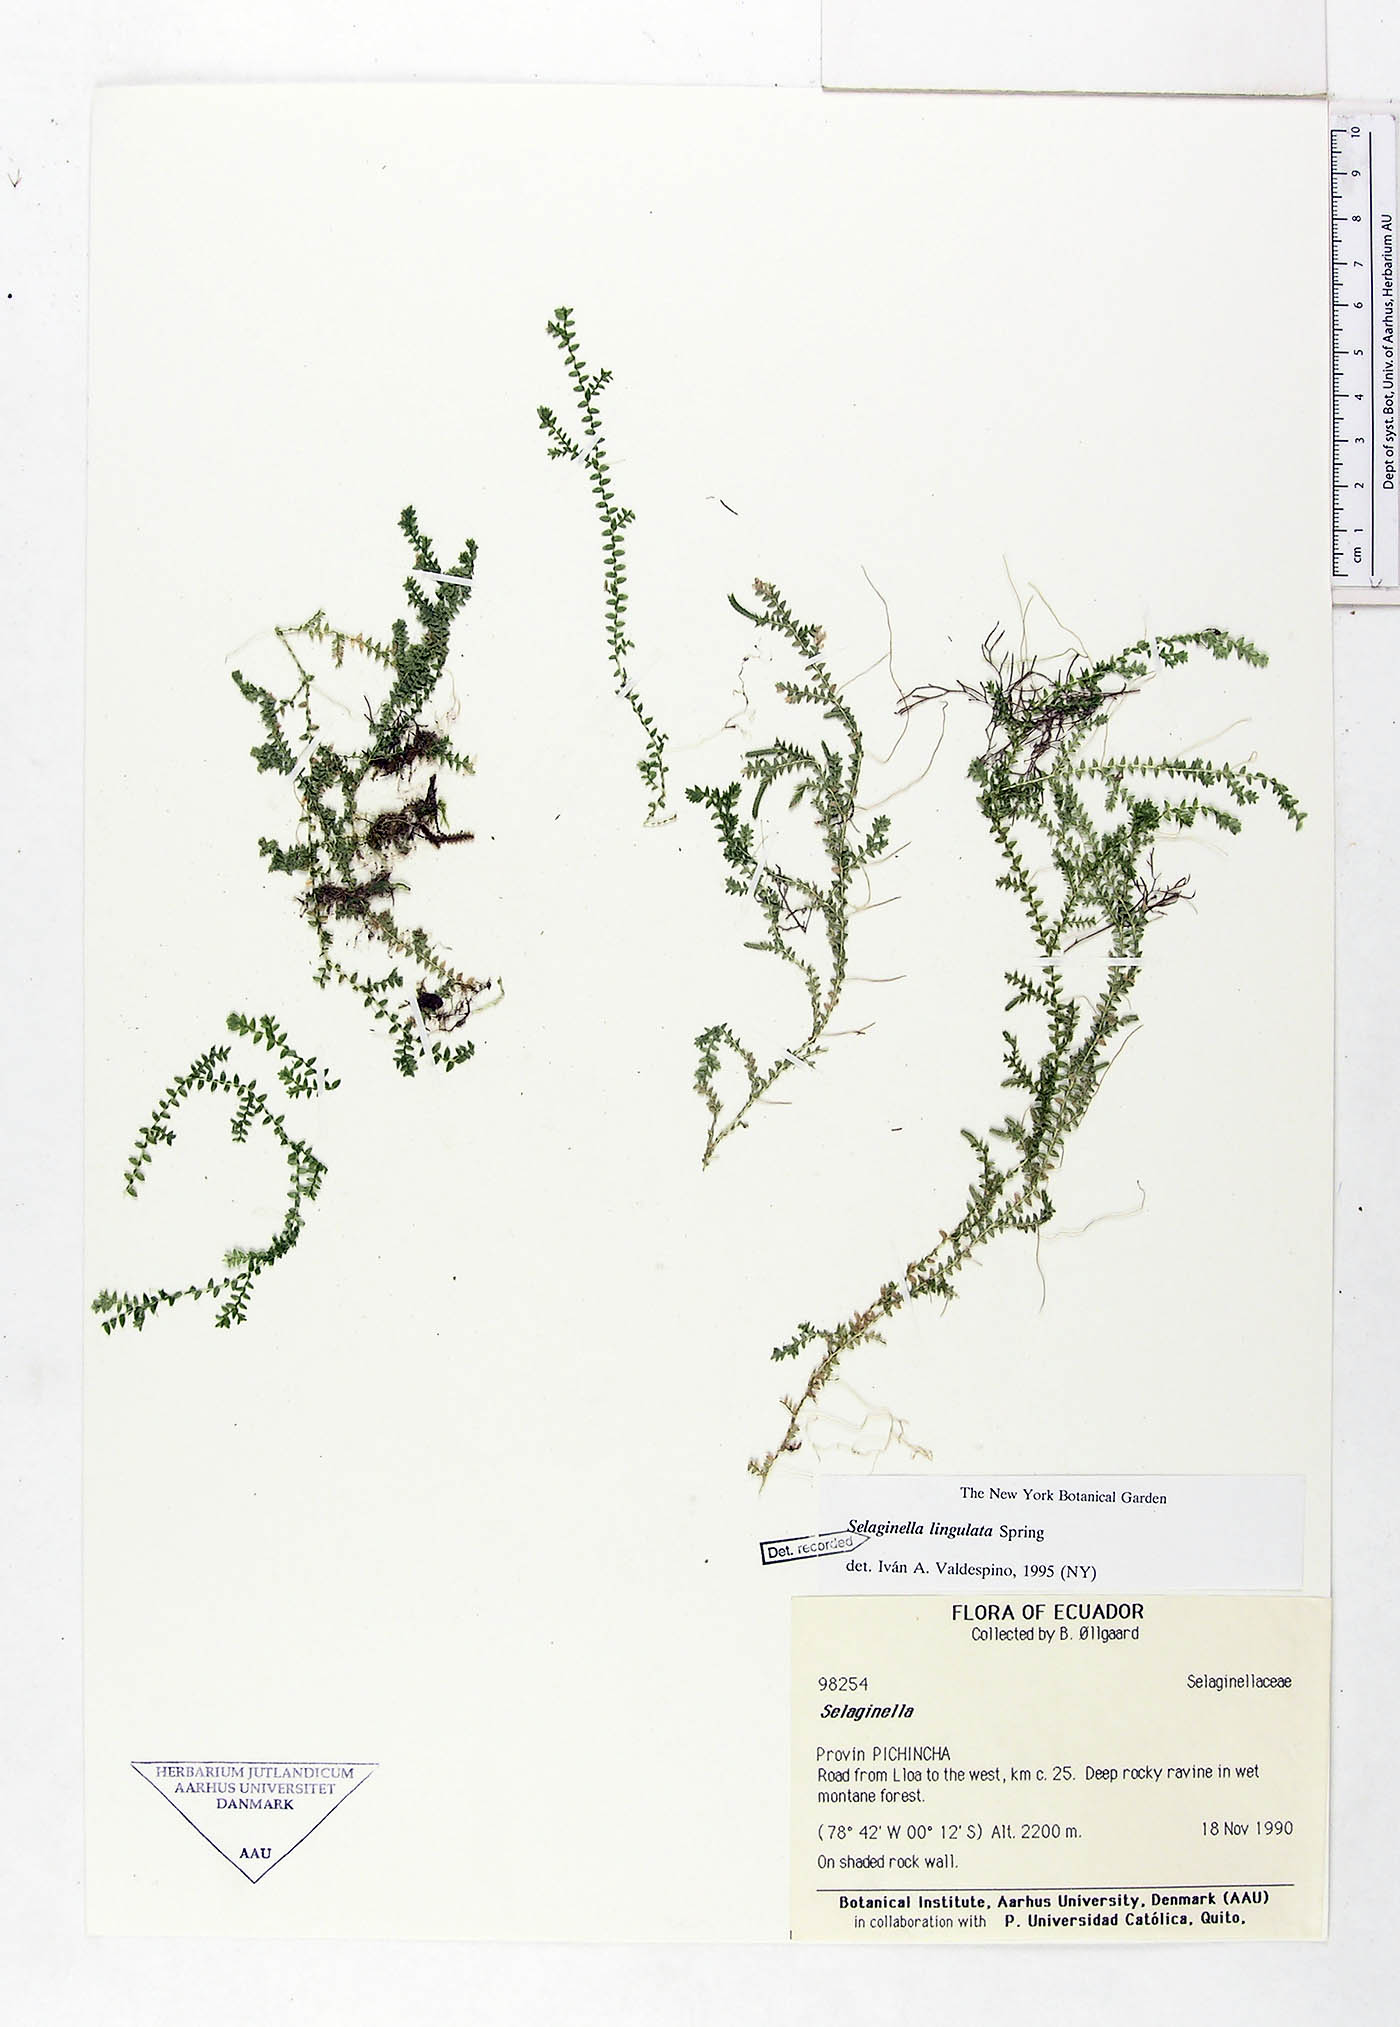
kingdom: Plantae
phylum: Tracheophyta
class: Lycopodiopsida
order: Selaginellales
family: Selaginellaceae
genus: Selaginella
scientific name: Selaginella lingulata
